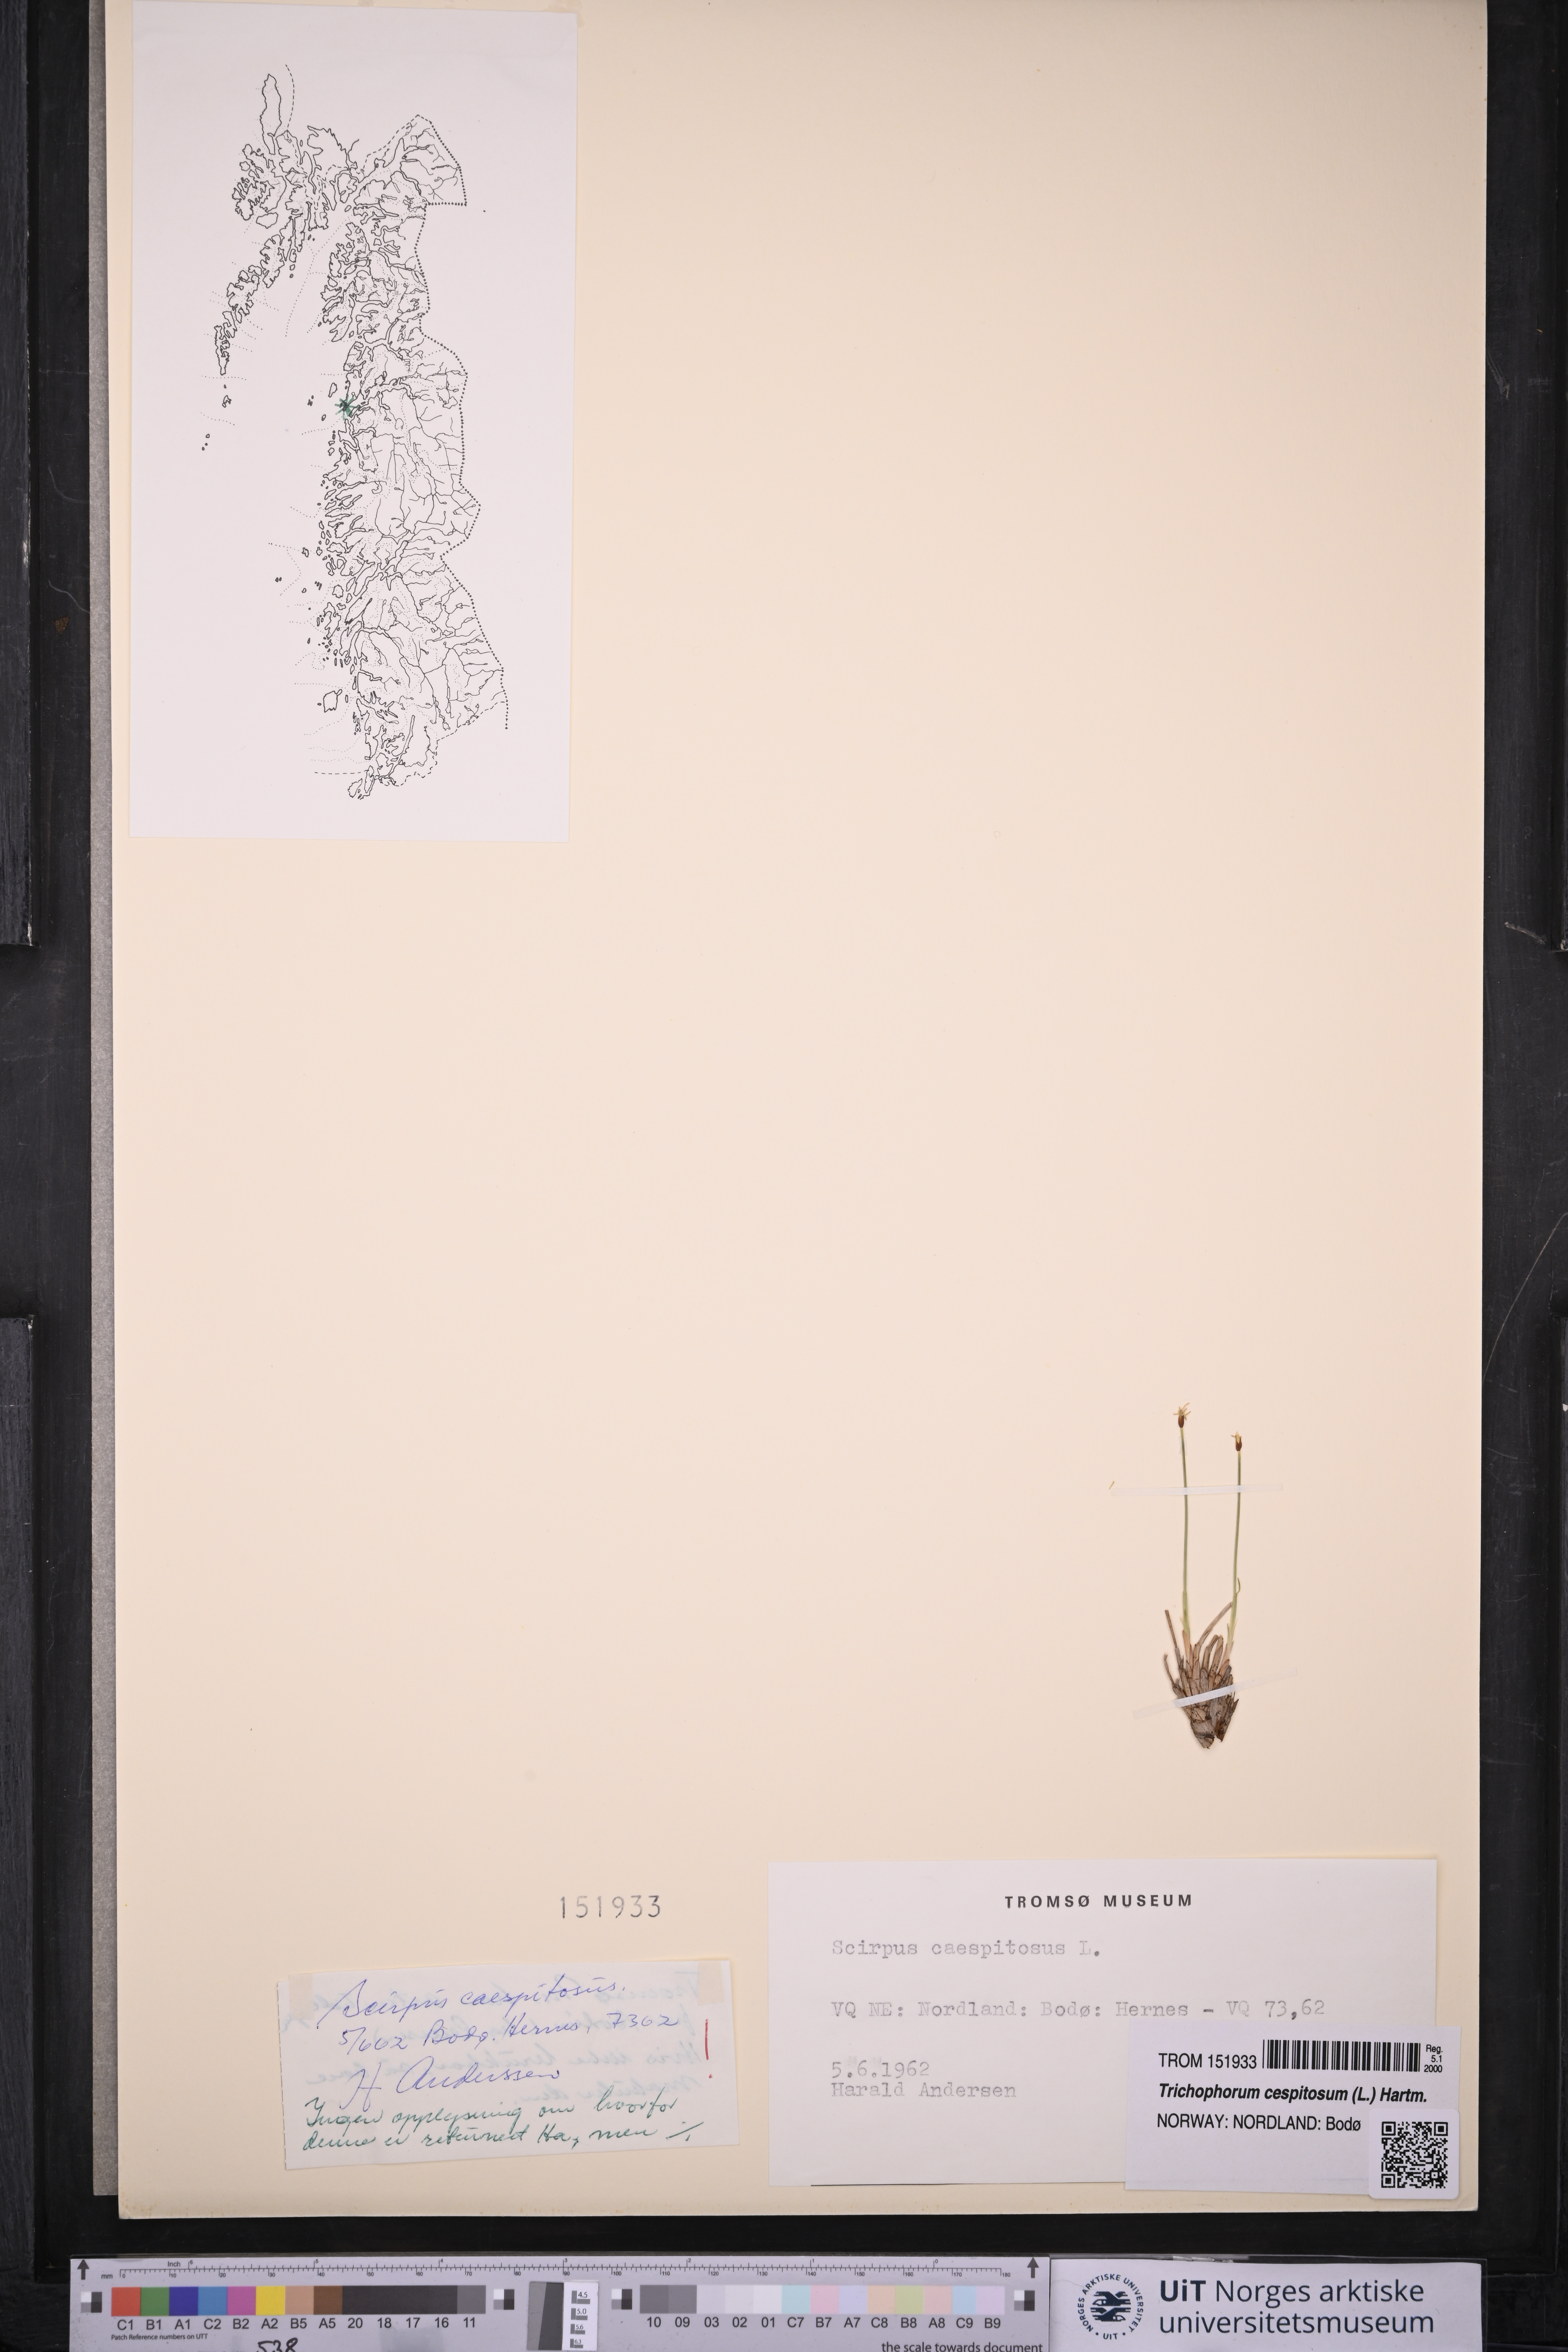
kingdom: Plantae
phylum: Tracheophyta
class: Liliopsida
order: Poales
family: Cyperaceae
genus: Trichophorum
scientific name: Trichophorum cespitosum
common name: Cespitose bulrush
